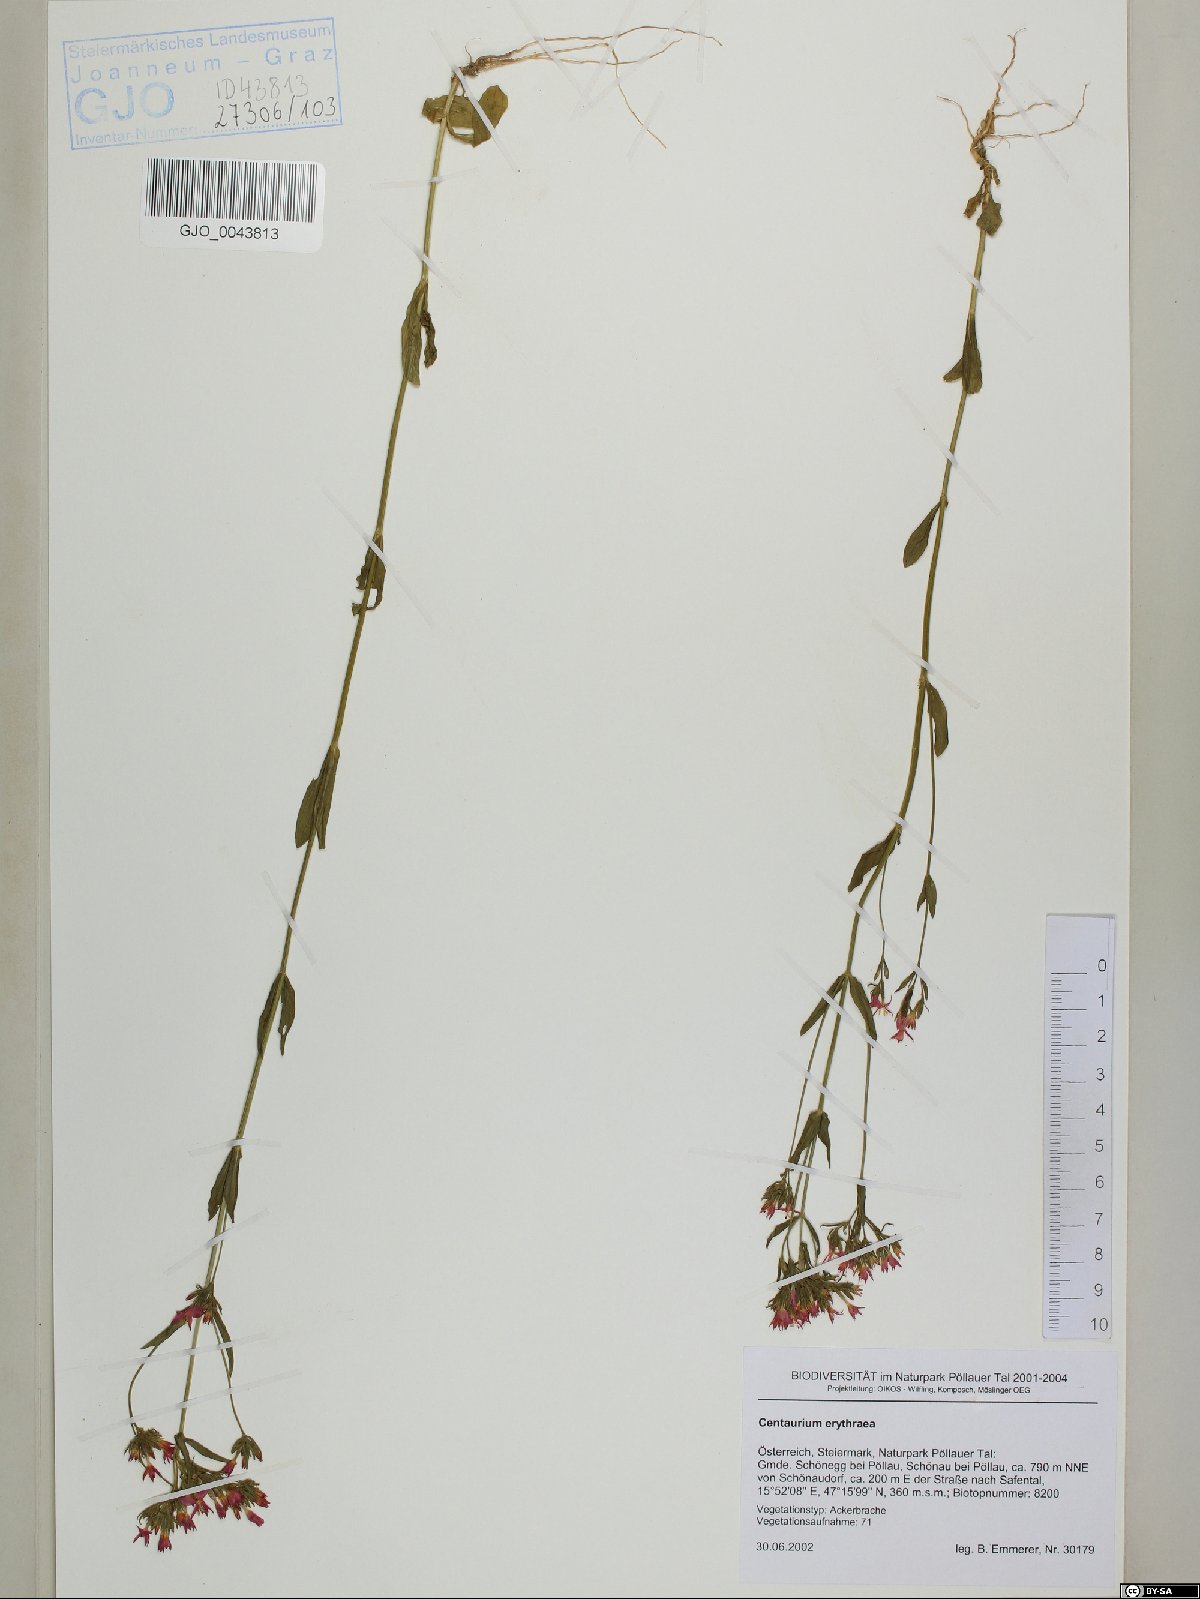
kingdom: Plantae
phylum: Tracheophyta
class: Magnoliopsida
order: Gentianales
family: Gentianaceae
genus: Centaurium
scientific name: Centaurium erythraea
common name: Common centaury
